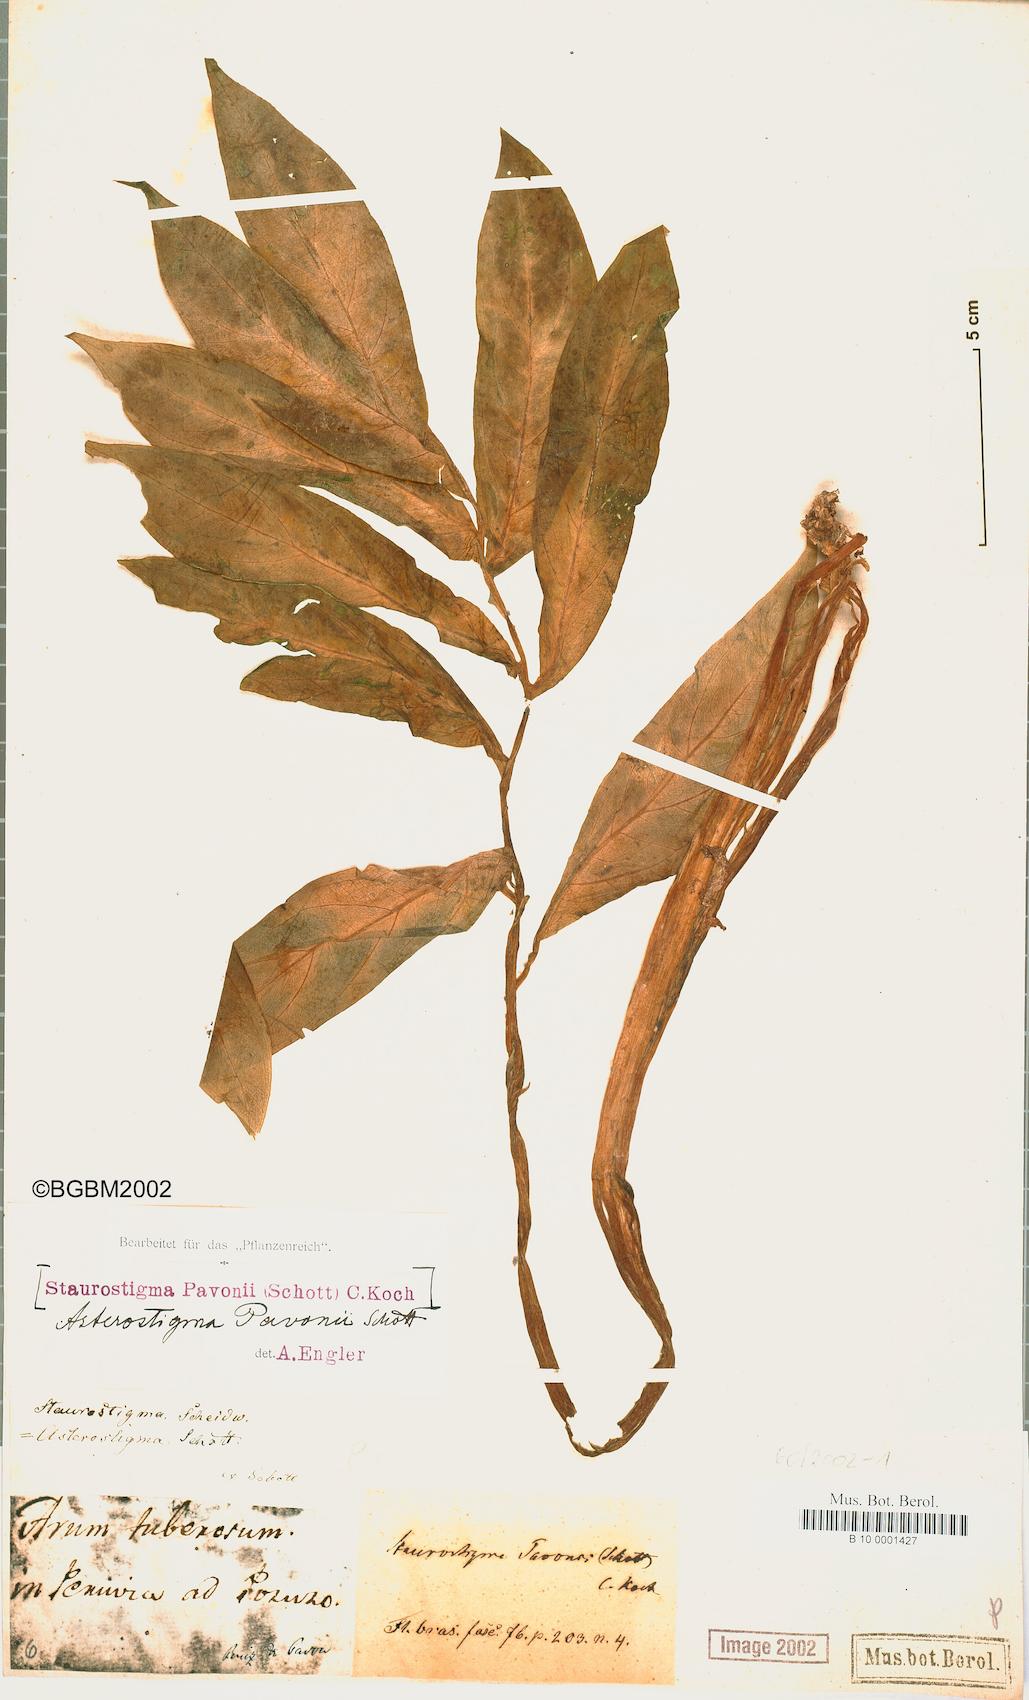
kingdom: Plantae
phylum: Tracheophyta
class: Liliopsida
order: Alismatales
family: Araceae
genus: Incarum
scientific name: Incarum pavonii
